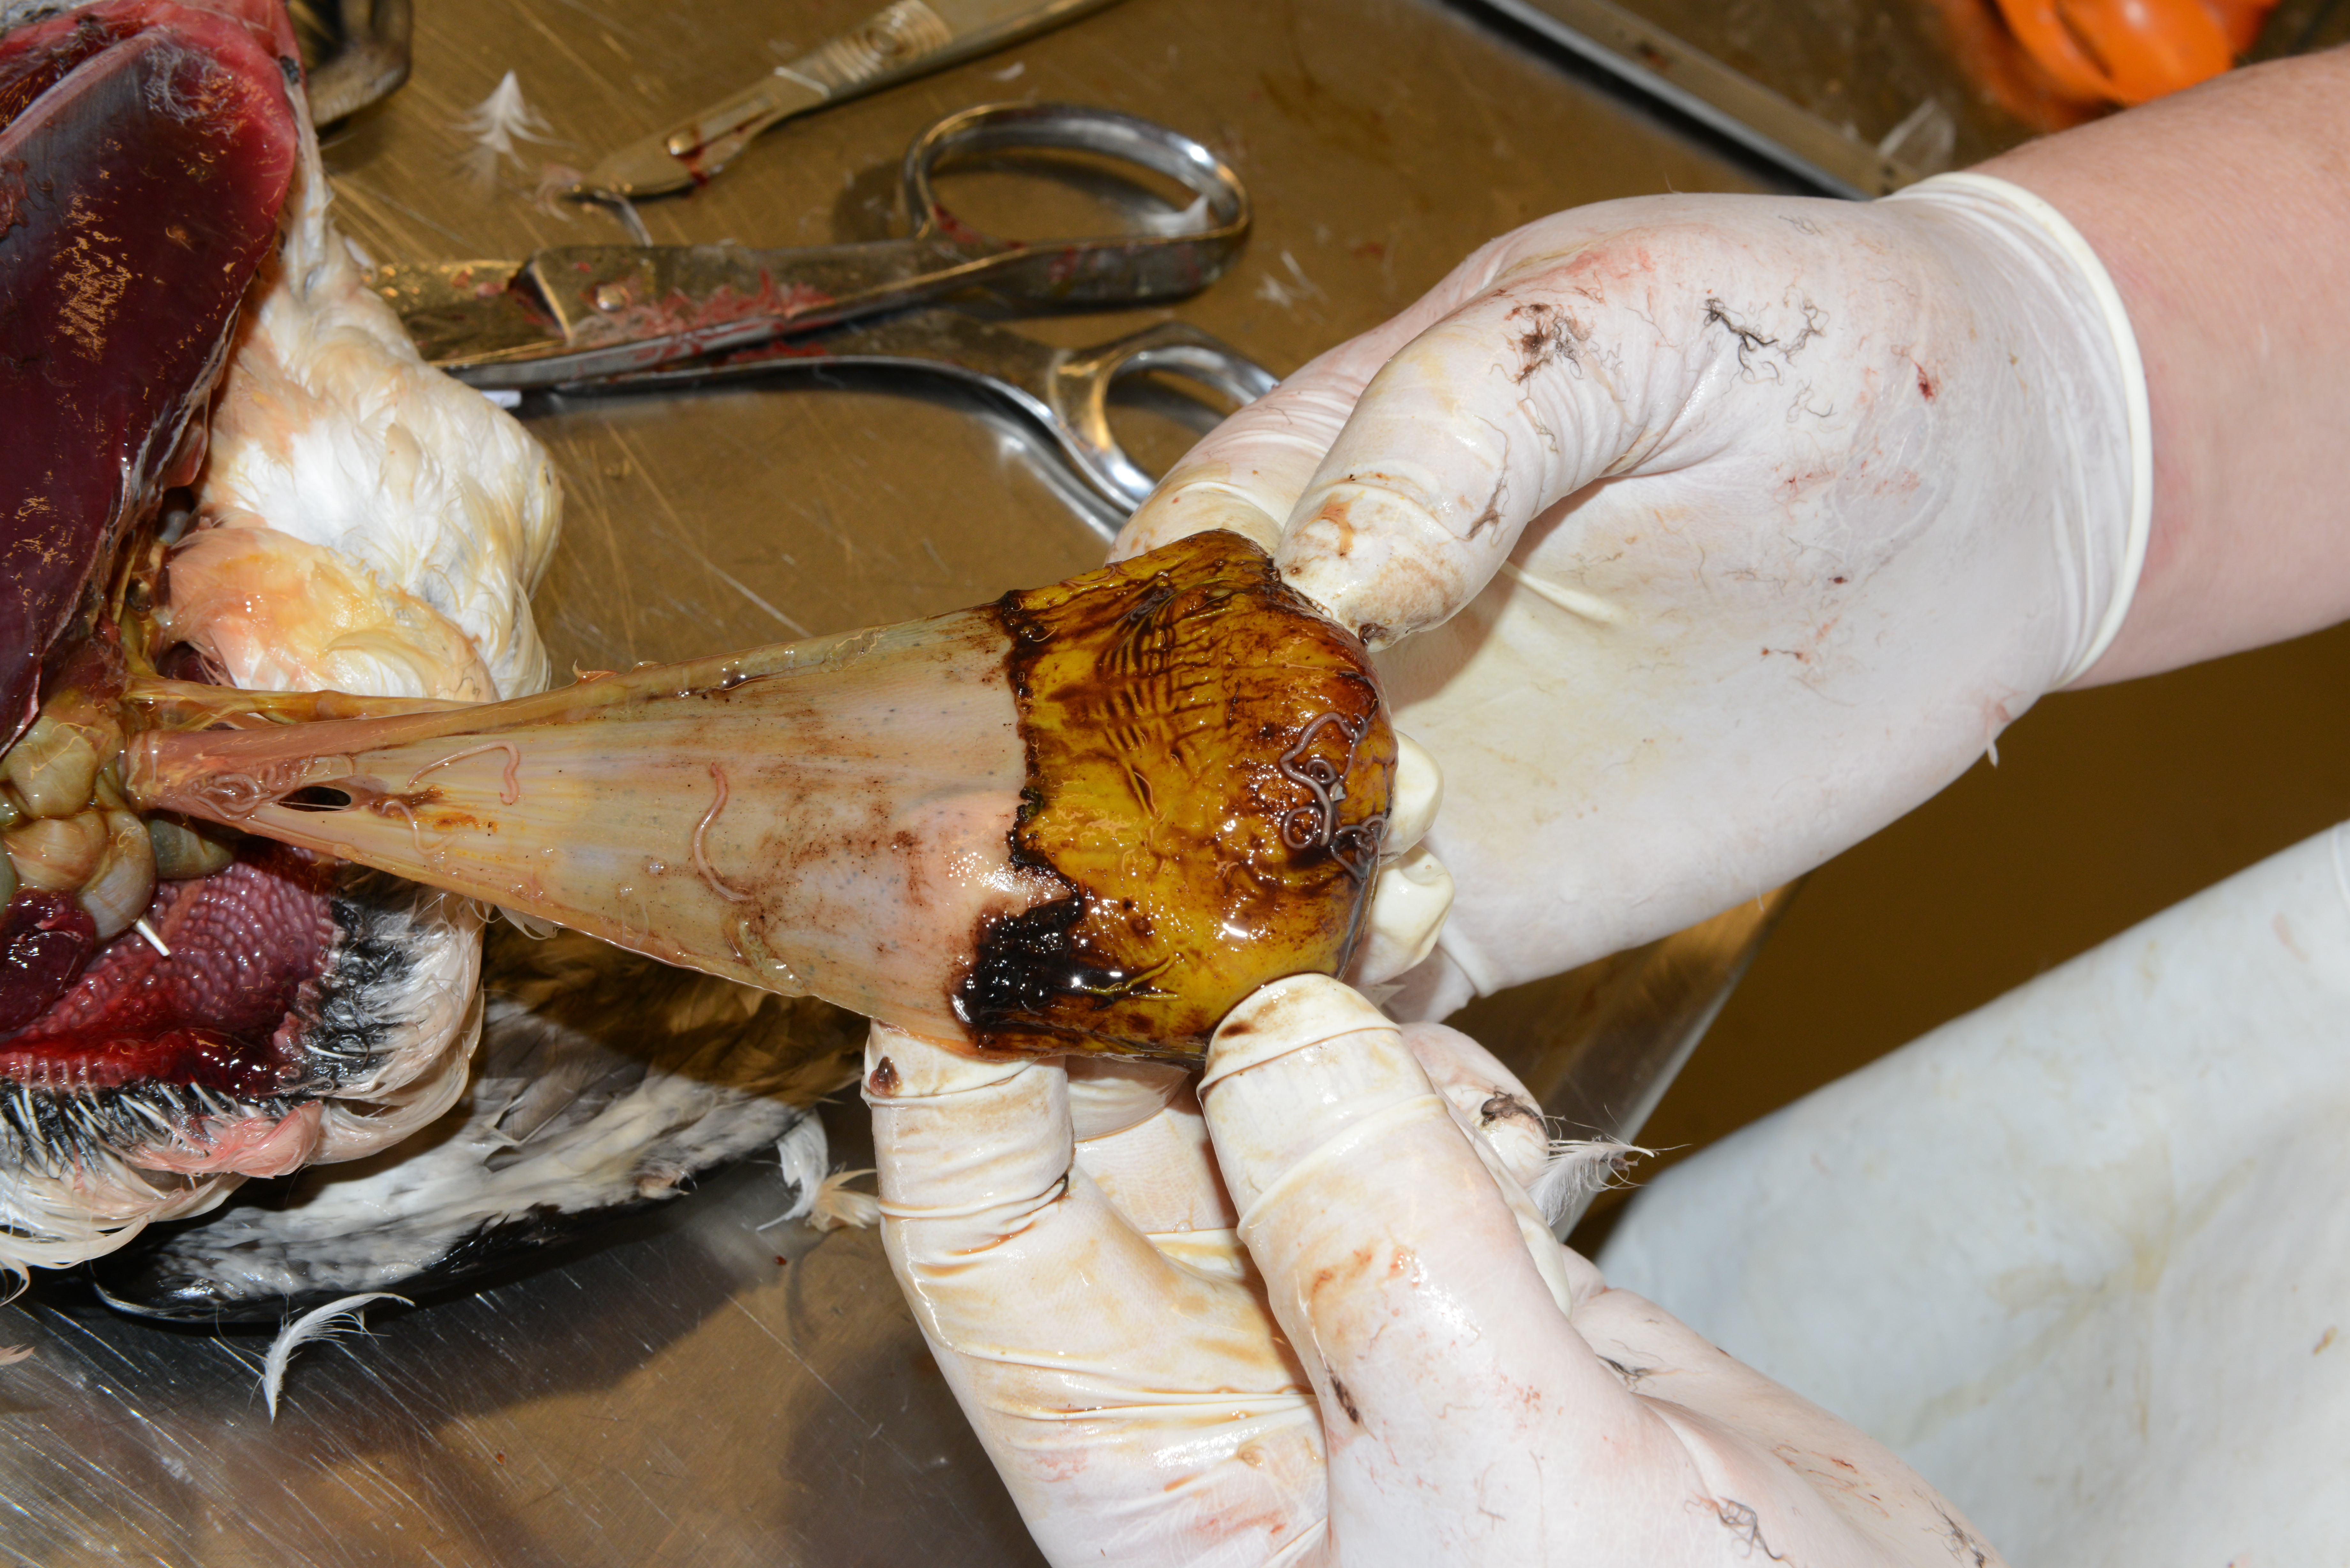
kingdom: Animalia
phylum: Chordata
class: Aves
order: Charadriiformes
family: Alcidae
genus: Uria
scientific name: Uria aalge
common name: Common murre
